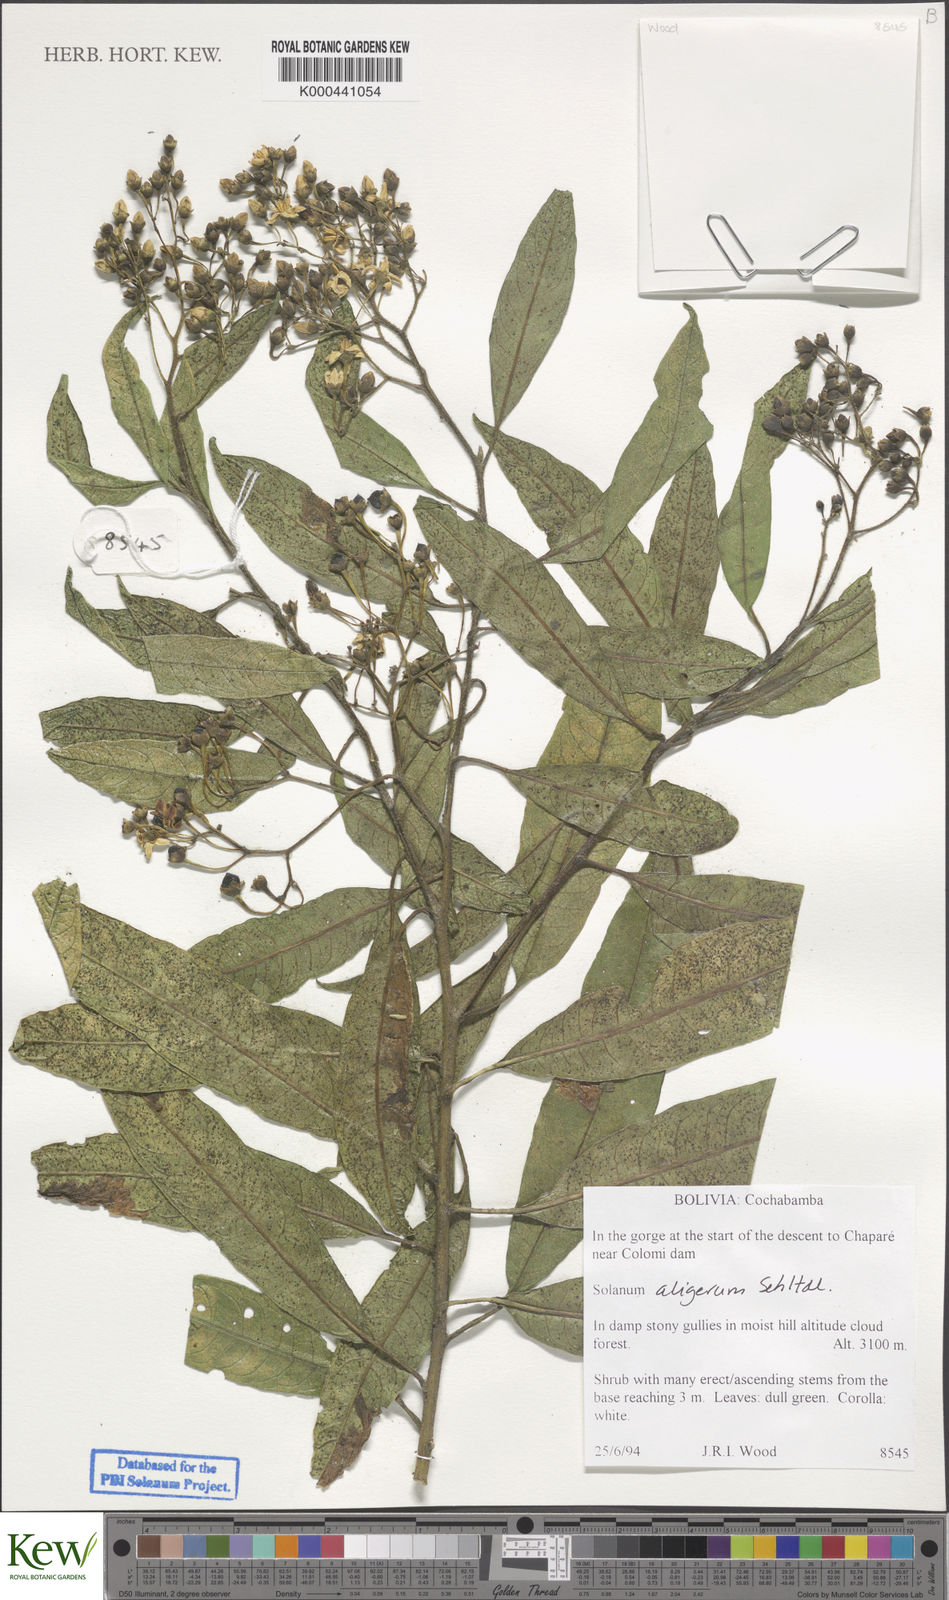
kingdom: Plantae
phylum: Tracheophyta
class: Magnoliopsida
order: Solanales
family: Solanaceae
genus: Solanum
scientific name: Solanum aligerum
